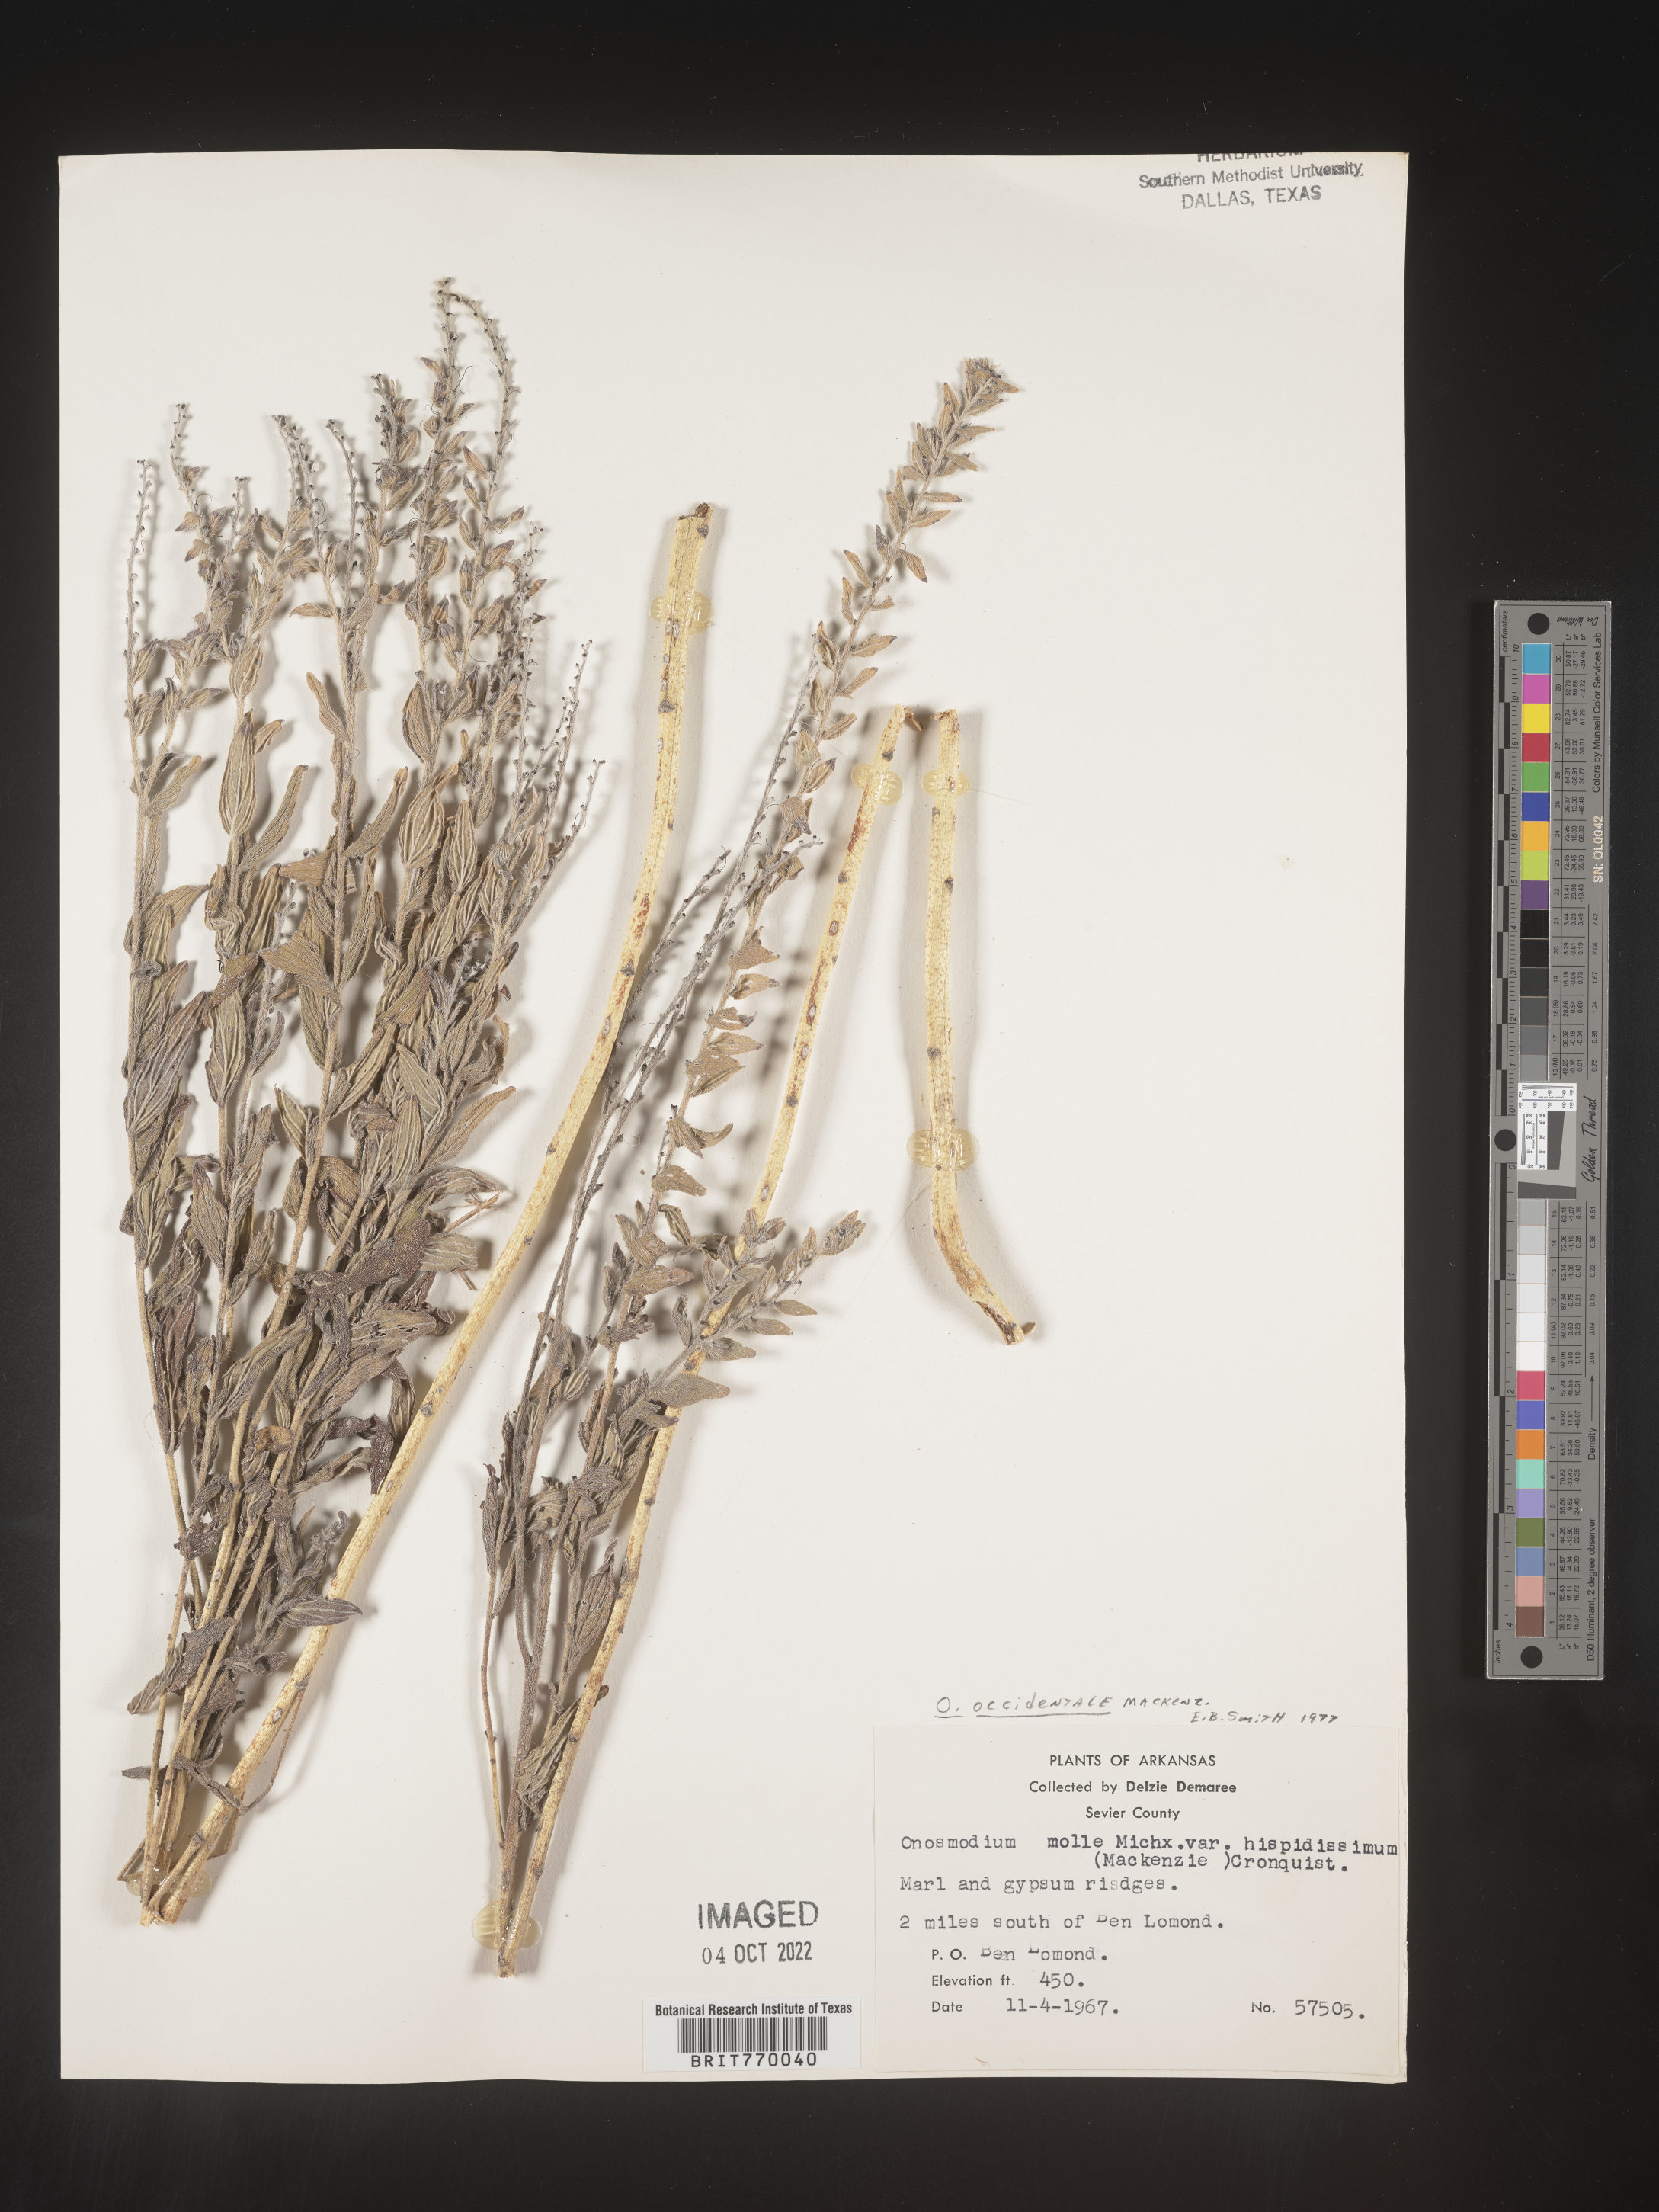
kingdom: Plantae
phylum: Tracheophyta
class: Magnoliopsida
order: Boraginales
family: Boraginaceae
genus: Lithospermum
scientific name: Lithospermum occidentale
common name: Western false gromwell
